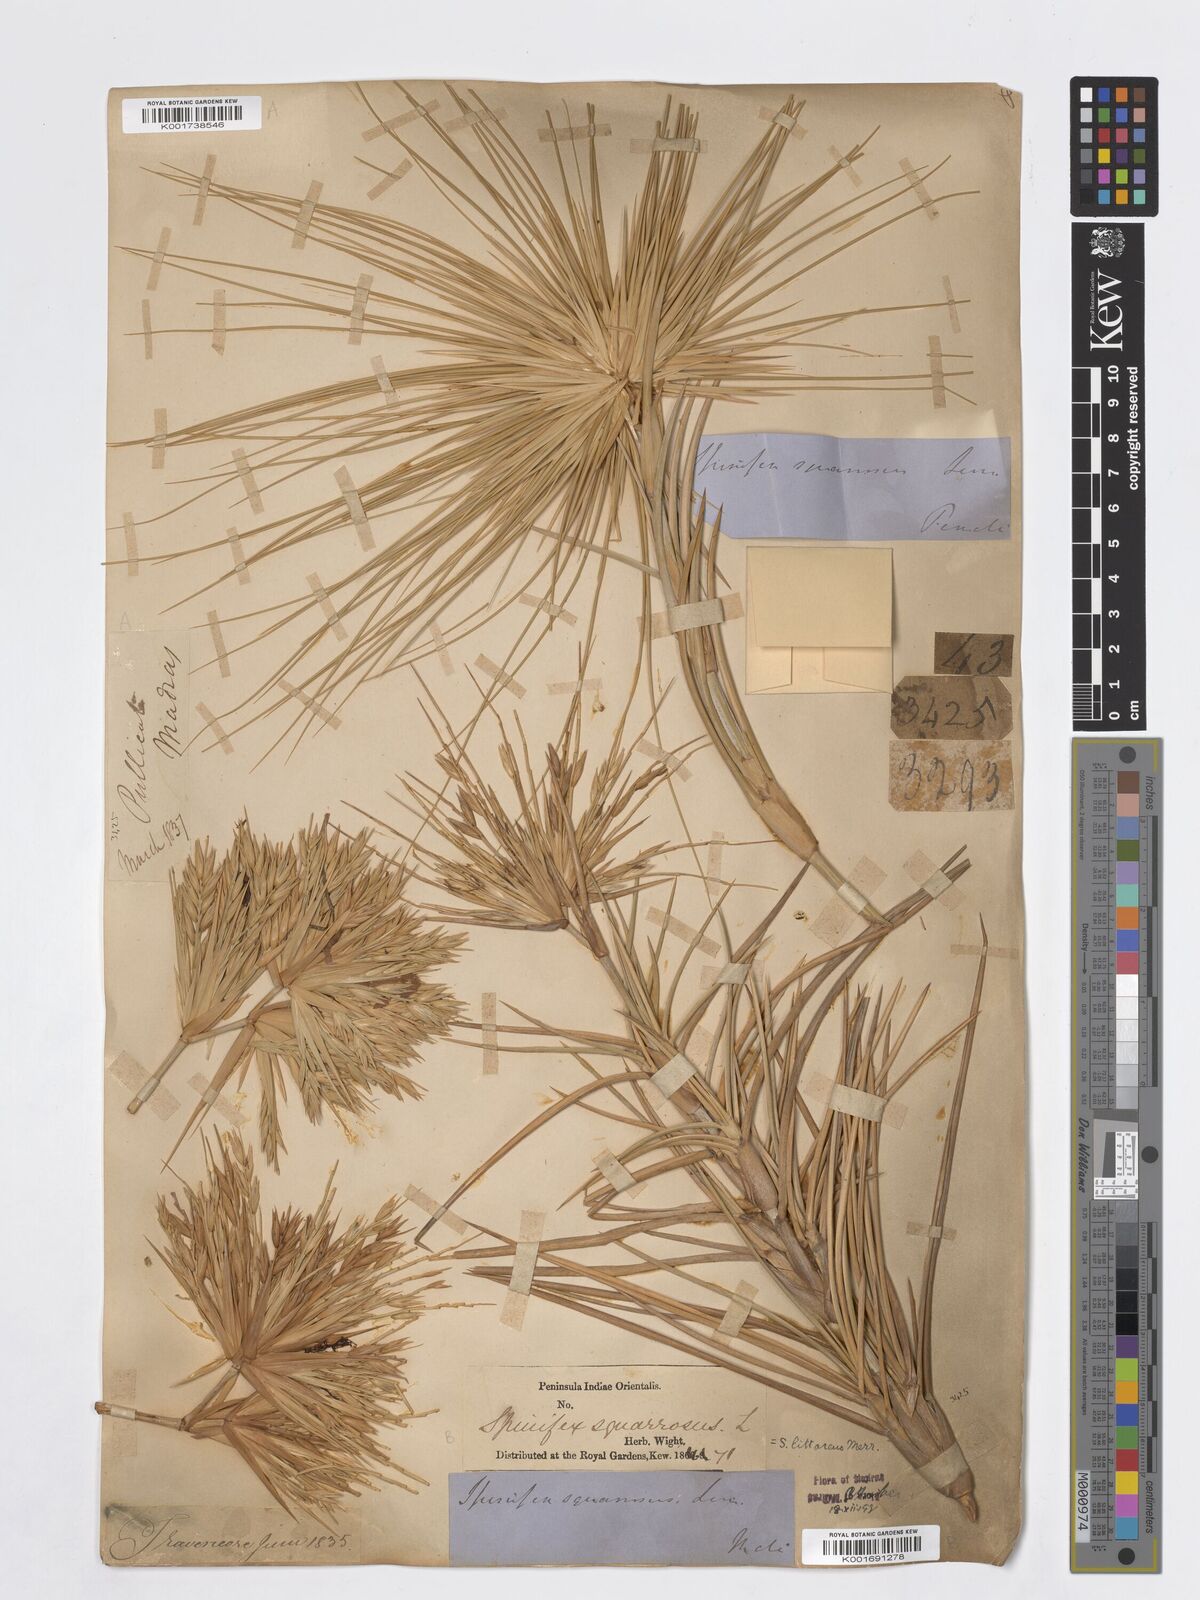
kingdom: Plantae
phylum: Tracheophyta
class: Liliopsida
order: Poales
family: Poaceae
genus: Spinifex
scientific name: Spinifex littoreus
